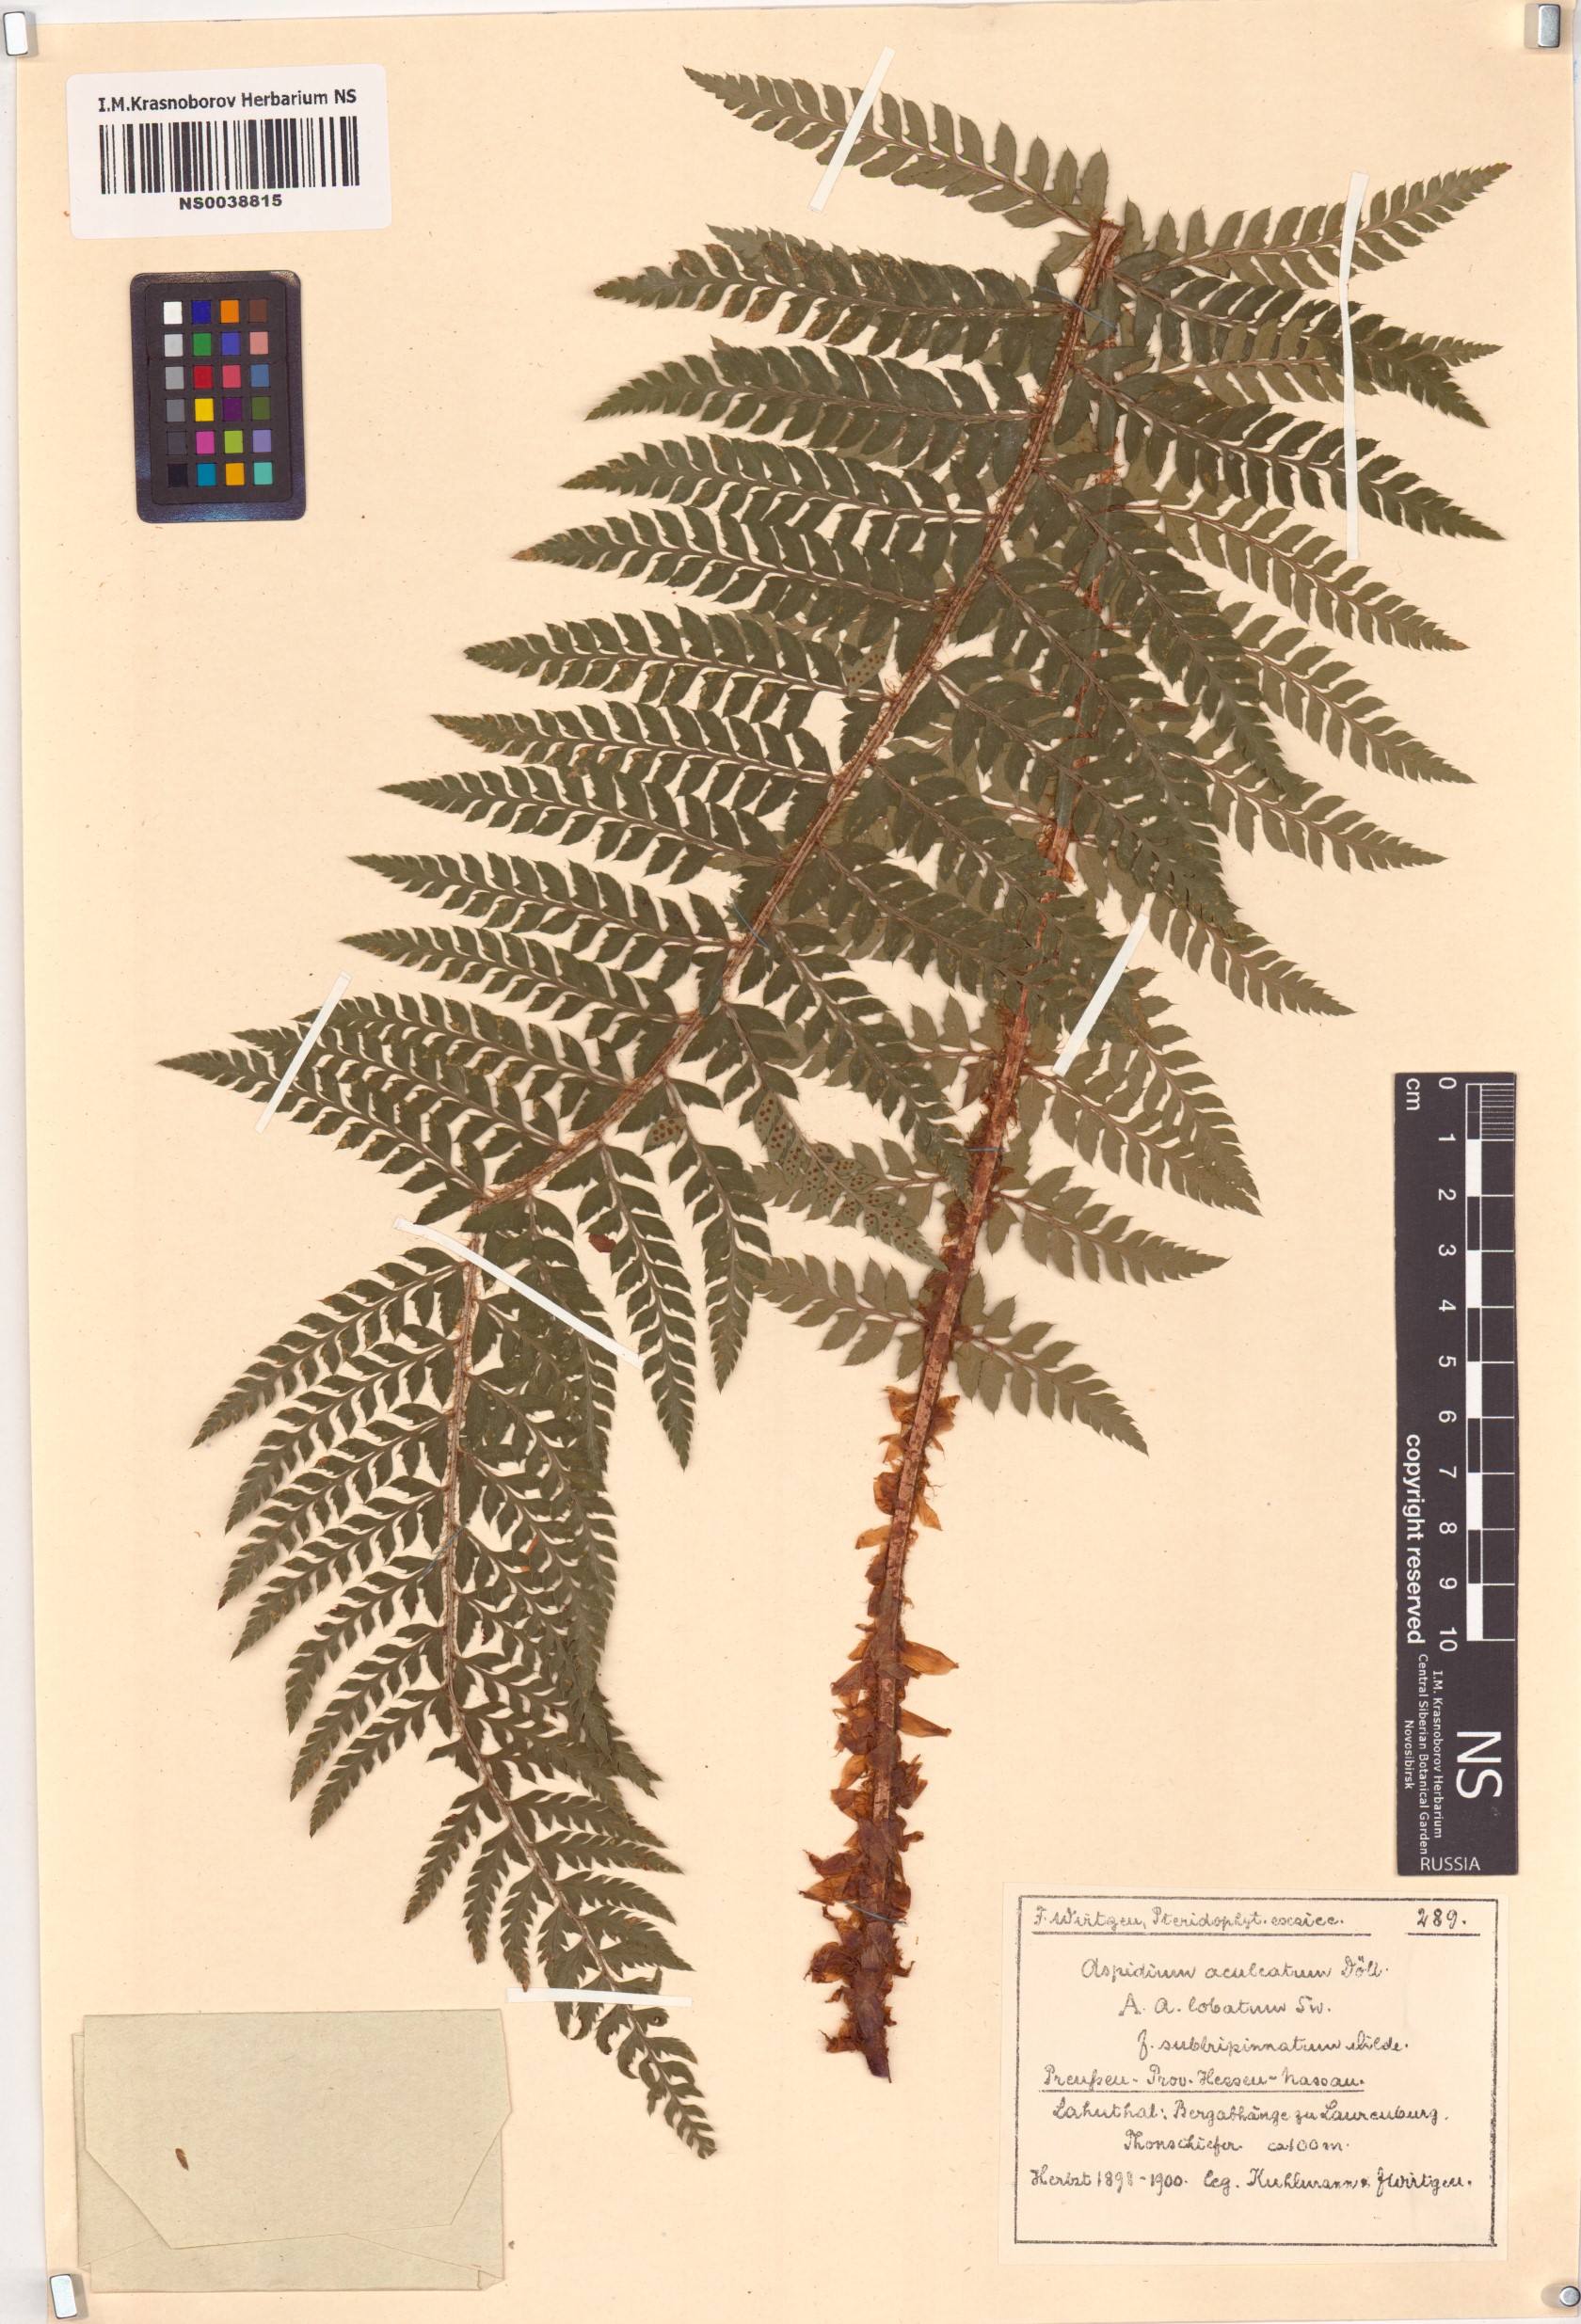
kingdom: Plantae
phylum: Tracheophyta
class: Polypodiopsida
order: Polypodiales
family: Dryopteridaceae
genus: Polystichum
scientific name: Polystichum aculeatum
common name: Hard shield-fern
